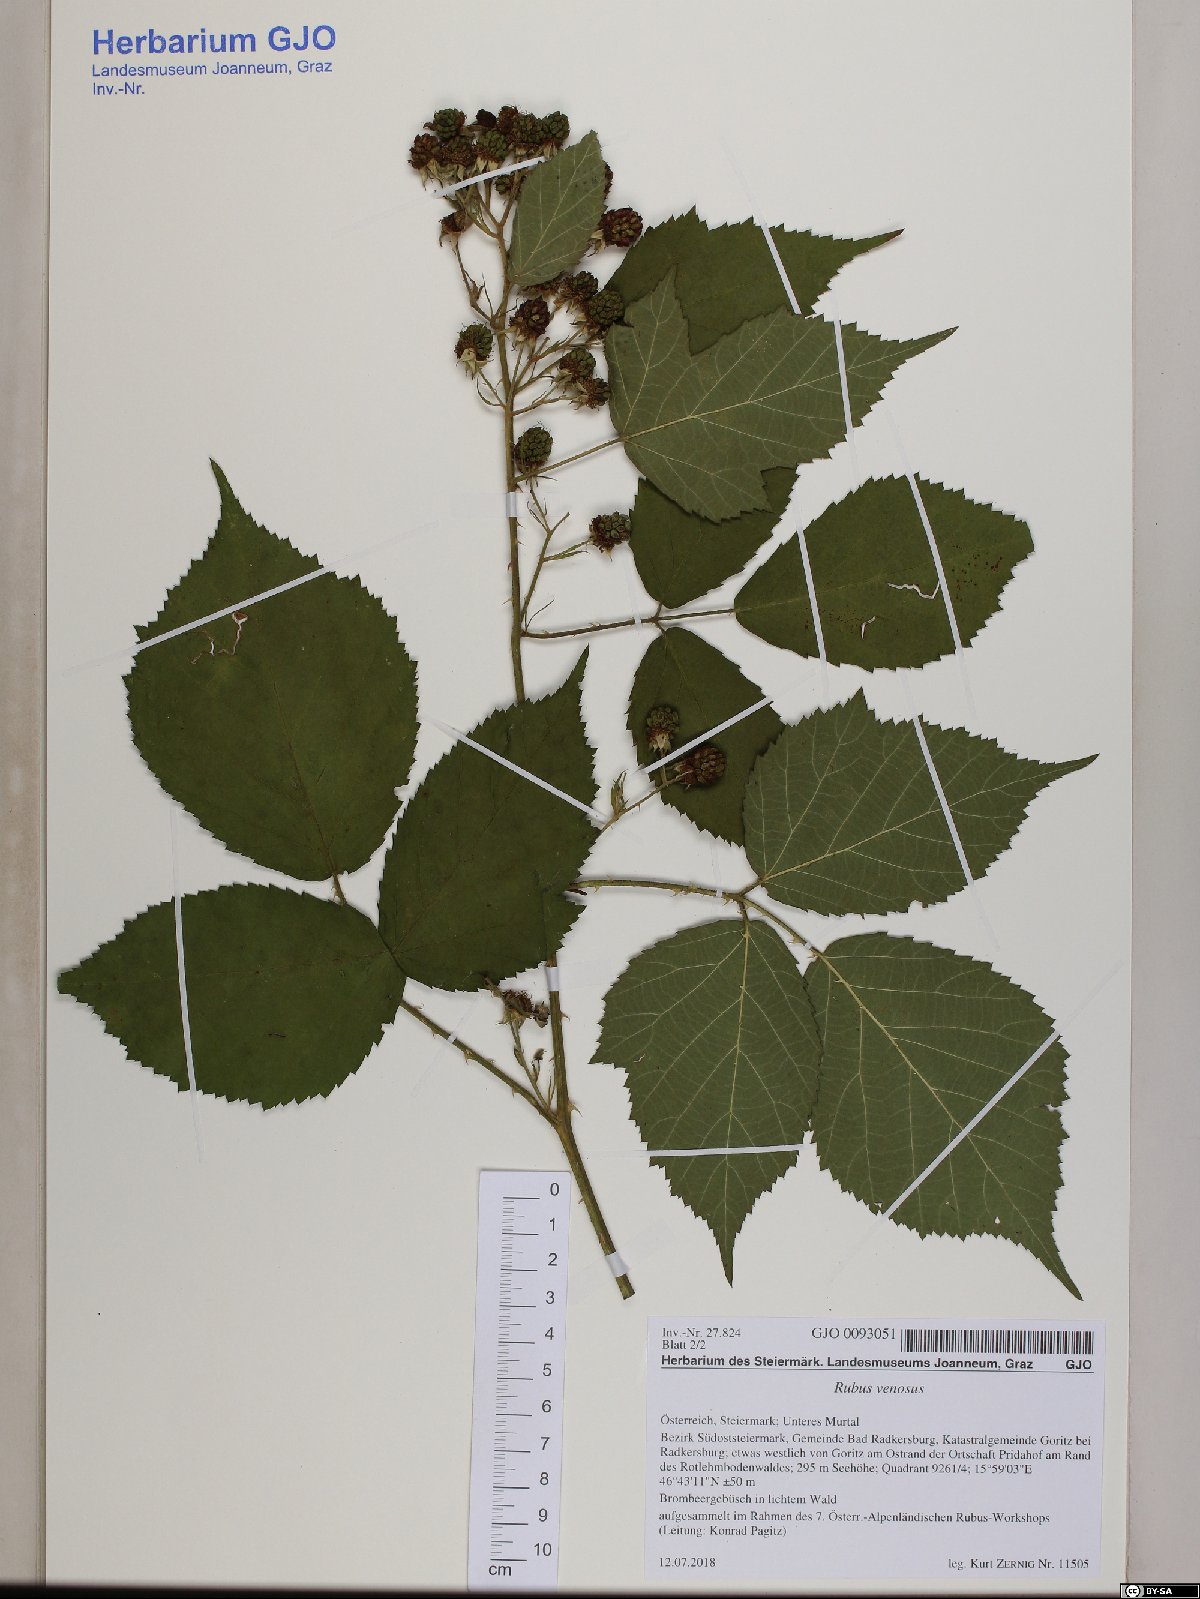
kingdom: Plantae
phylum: Tracheophyta
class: Magnoliopsida
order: Rosales
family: Rosaceae
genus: Rubus
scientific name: Rubus venosus
